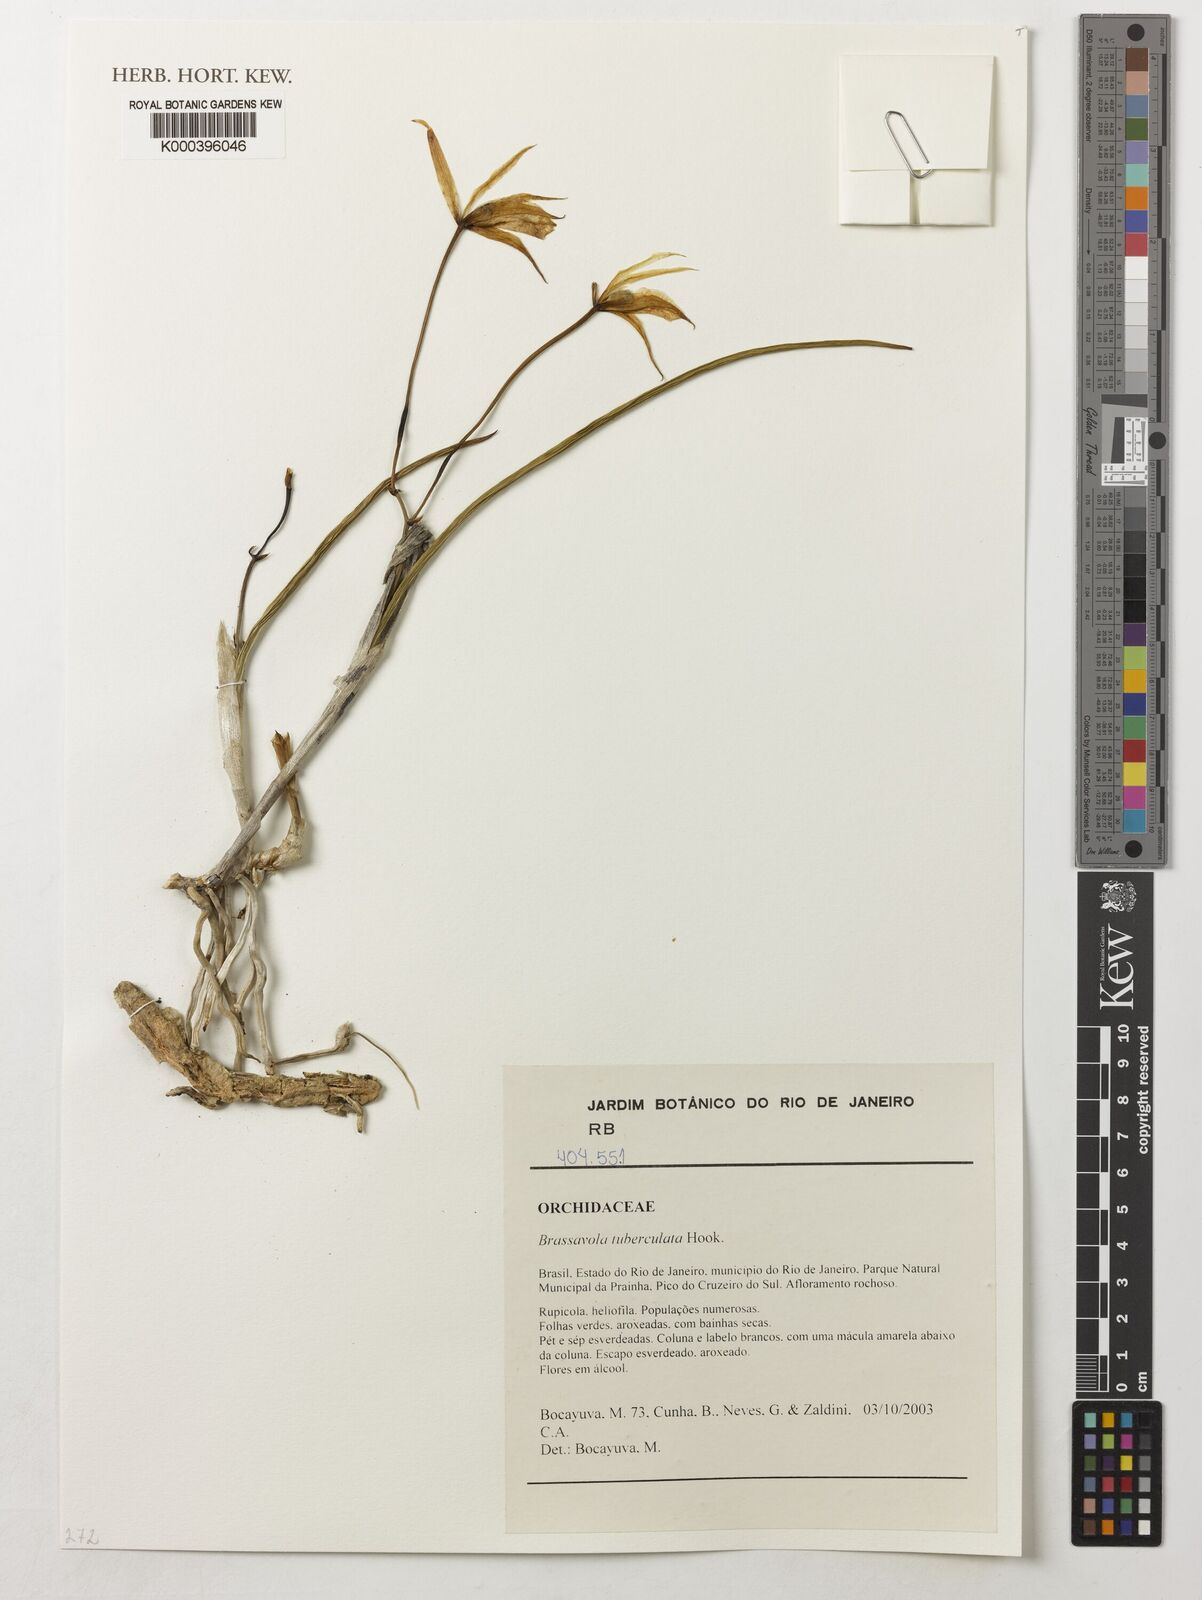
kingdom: Plantae
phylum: Tracheophyta
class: Liliopsida
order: Asparagales
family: Orchidaceae
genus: Brassavola
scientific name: Brassavola tuberculata
